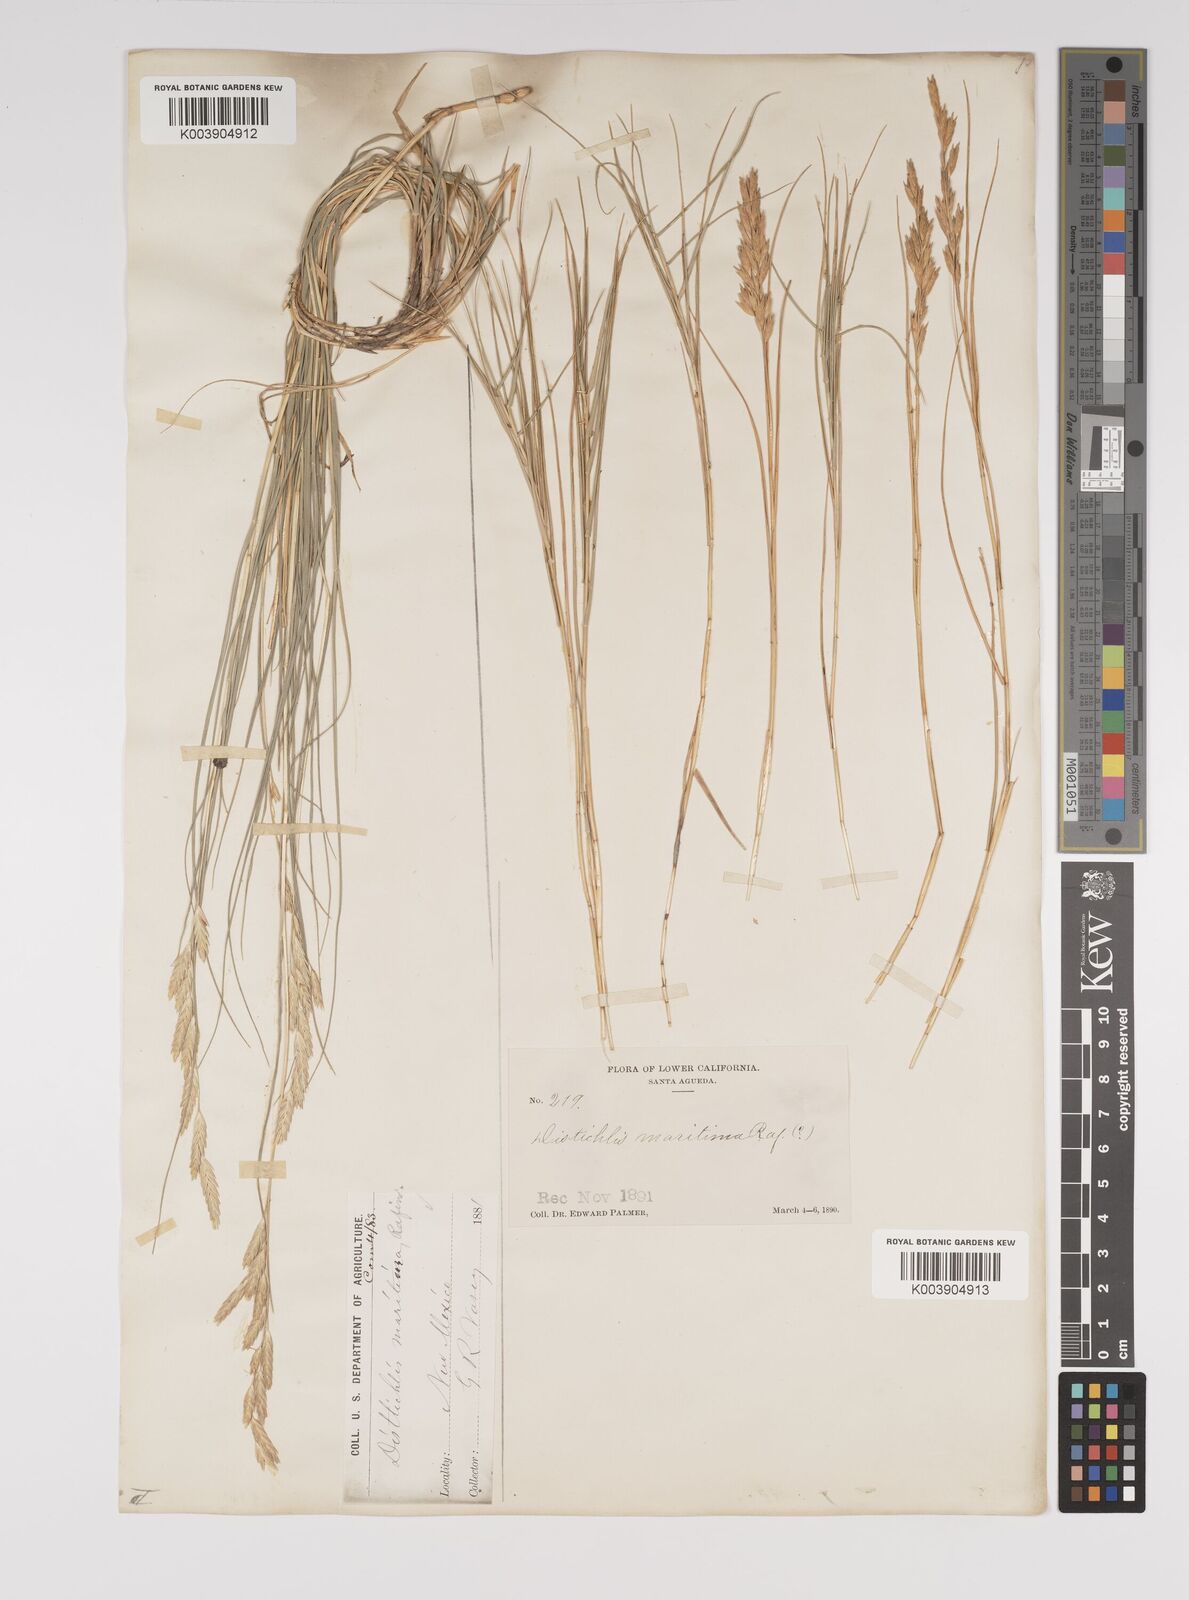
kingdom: Plantae
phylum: Tracheophyta
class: Liliopsida
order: Poales
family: Poaceae
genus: Distichlis
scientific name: Distichlis spicata
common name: Saltgrass
